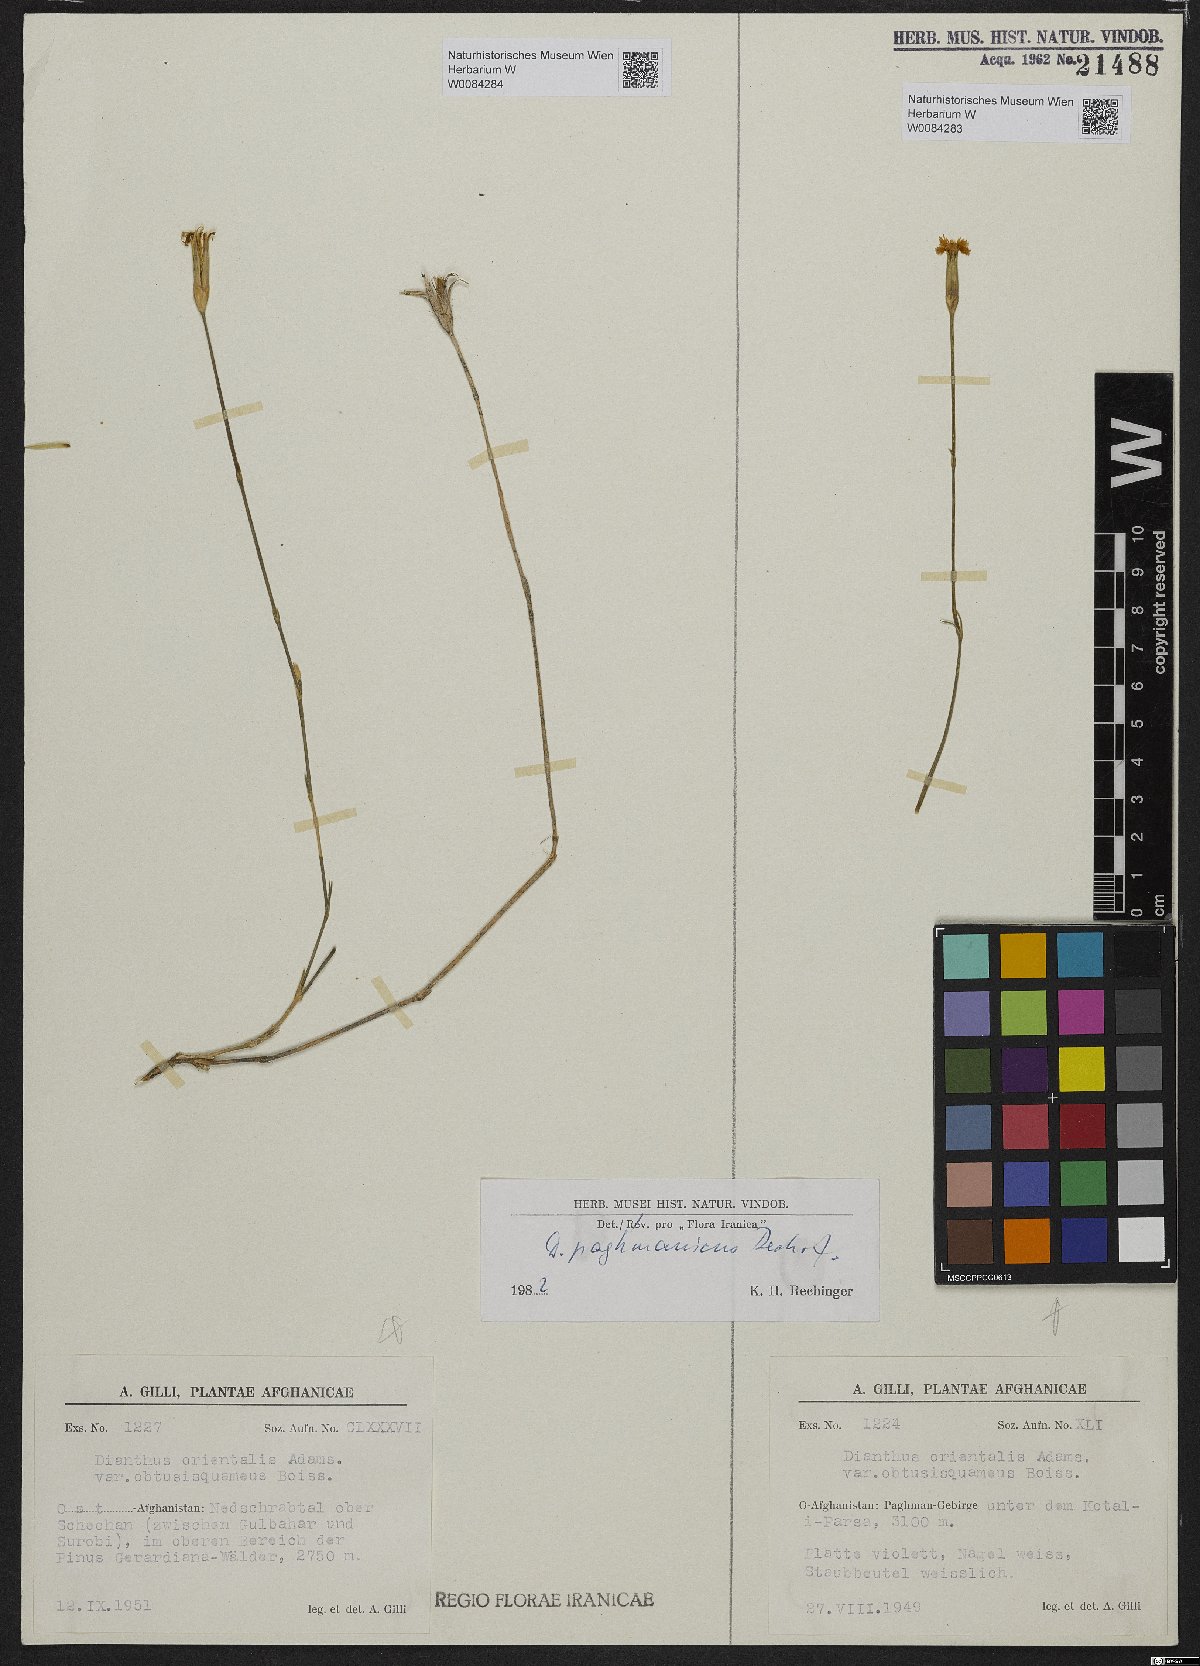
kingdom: Plantae
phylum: Tracheophyta
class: Magnoliopsida
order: Caryophyllales
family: Caryophyllaceae
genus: Dianthus
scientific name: Dianthus paghmanicus
